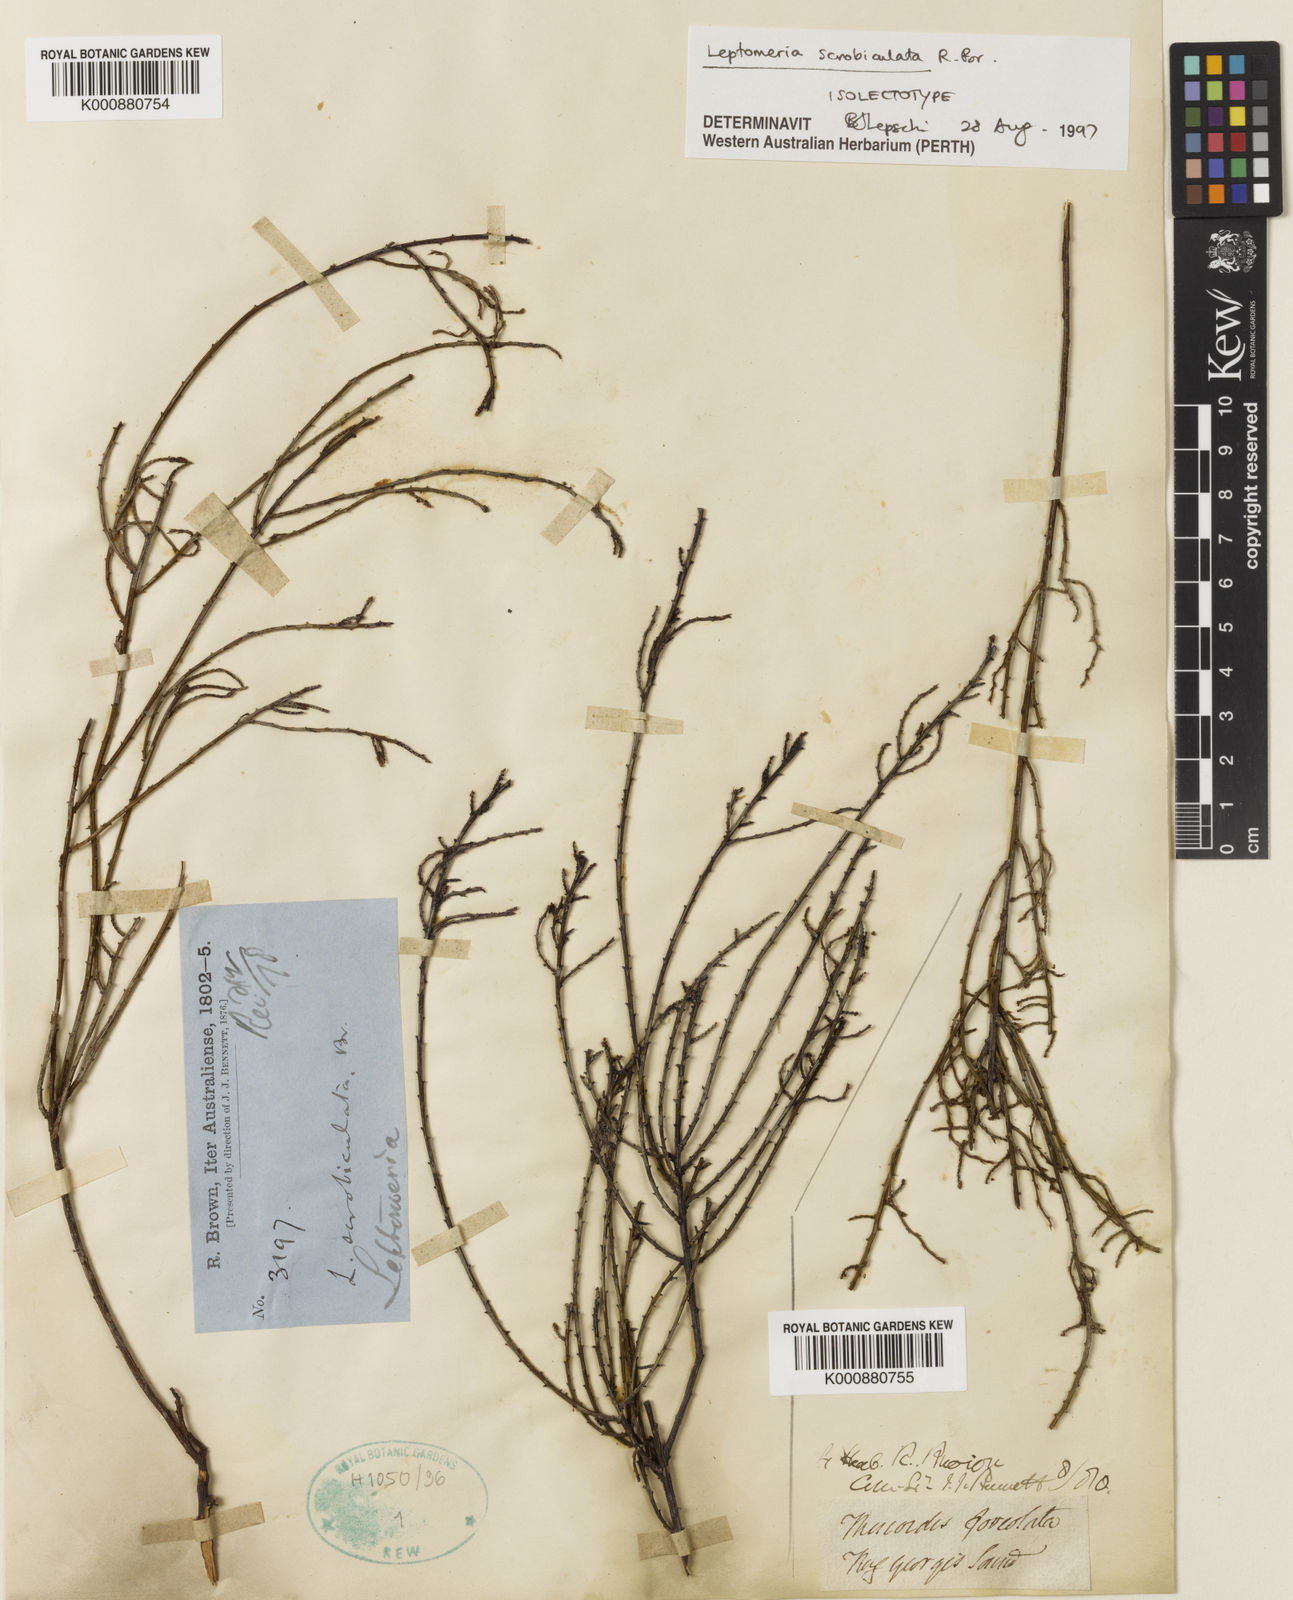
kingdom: Plantae
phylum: Tracheophyta
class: Magnoliopsida
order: Santalales
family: Amphorogynaceae
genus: Leptomeria
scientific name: Leptomeria scrobiculata
